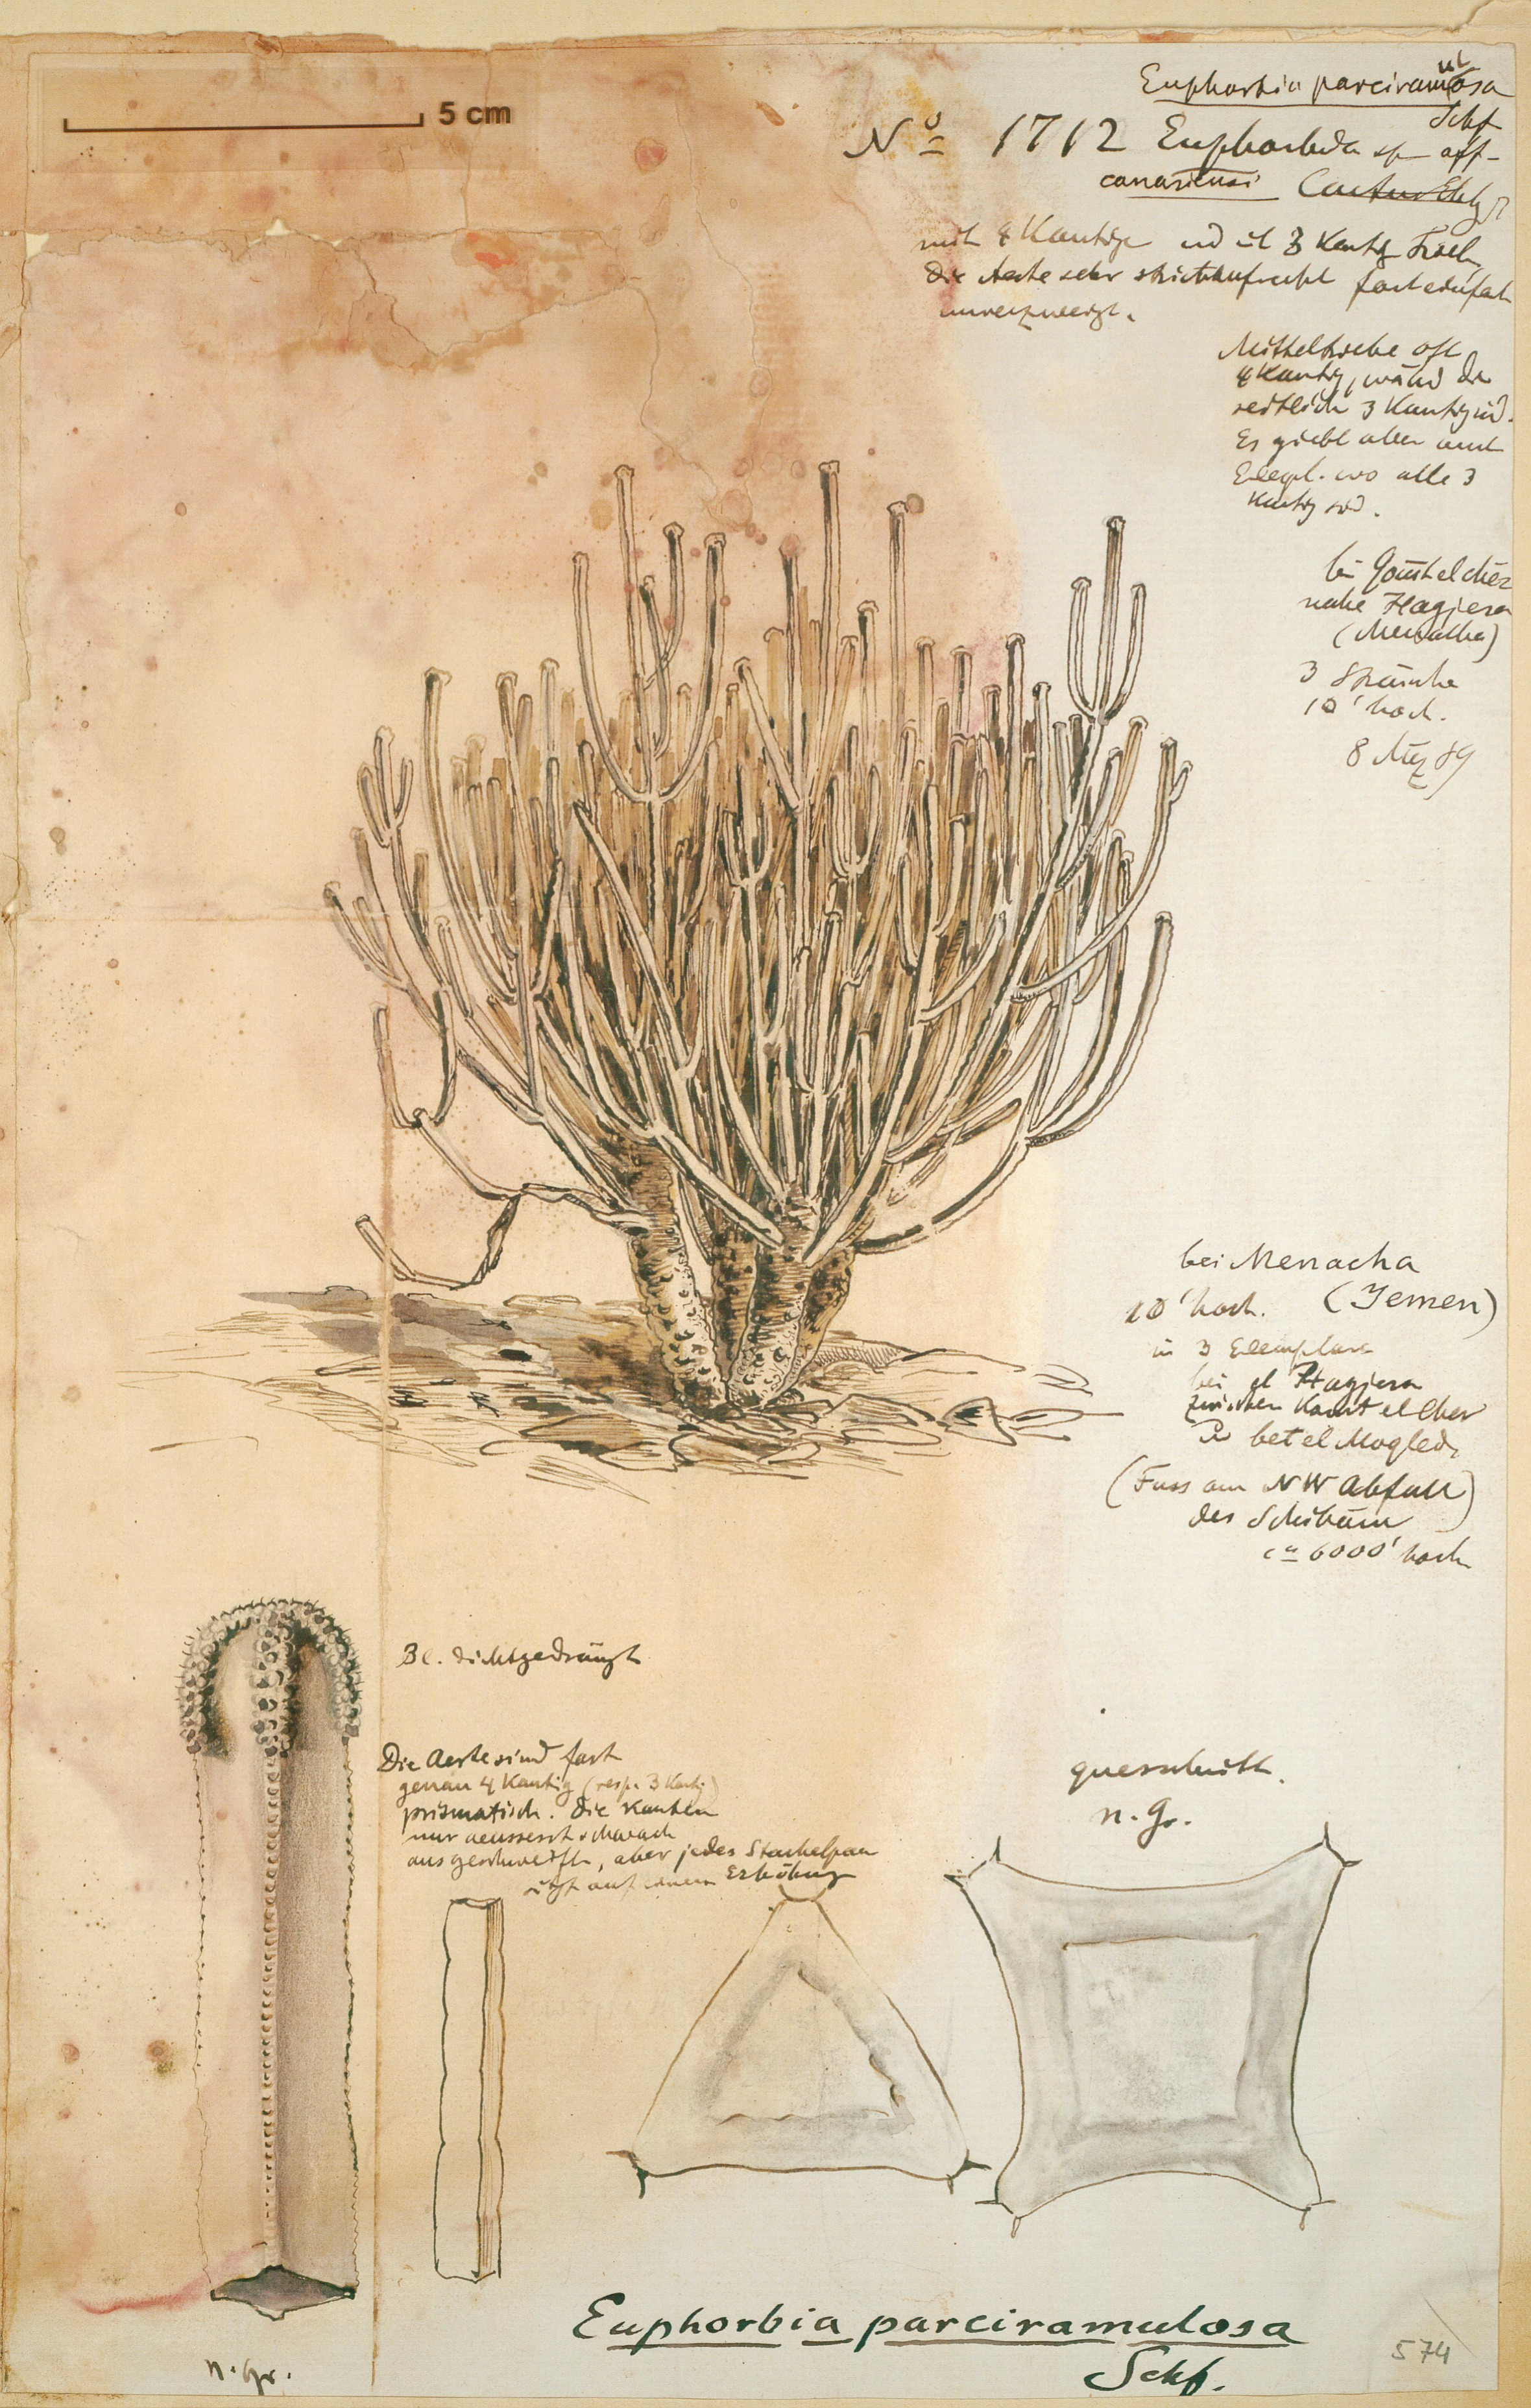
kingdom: Plantae
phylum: Tracheophyta
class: Magnoliopsida
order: Malpighiales
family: Euphorbiaceae
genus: Euphorbia
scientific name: Euphorbia parciramulosa
